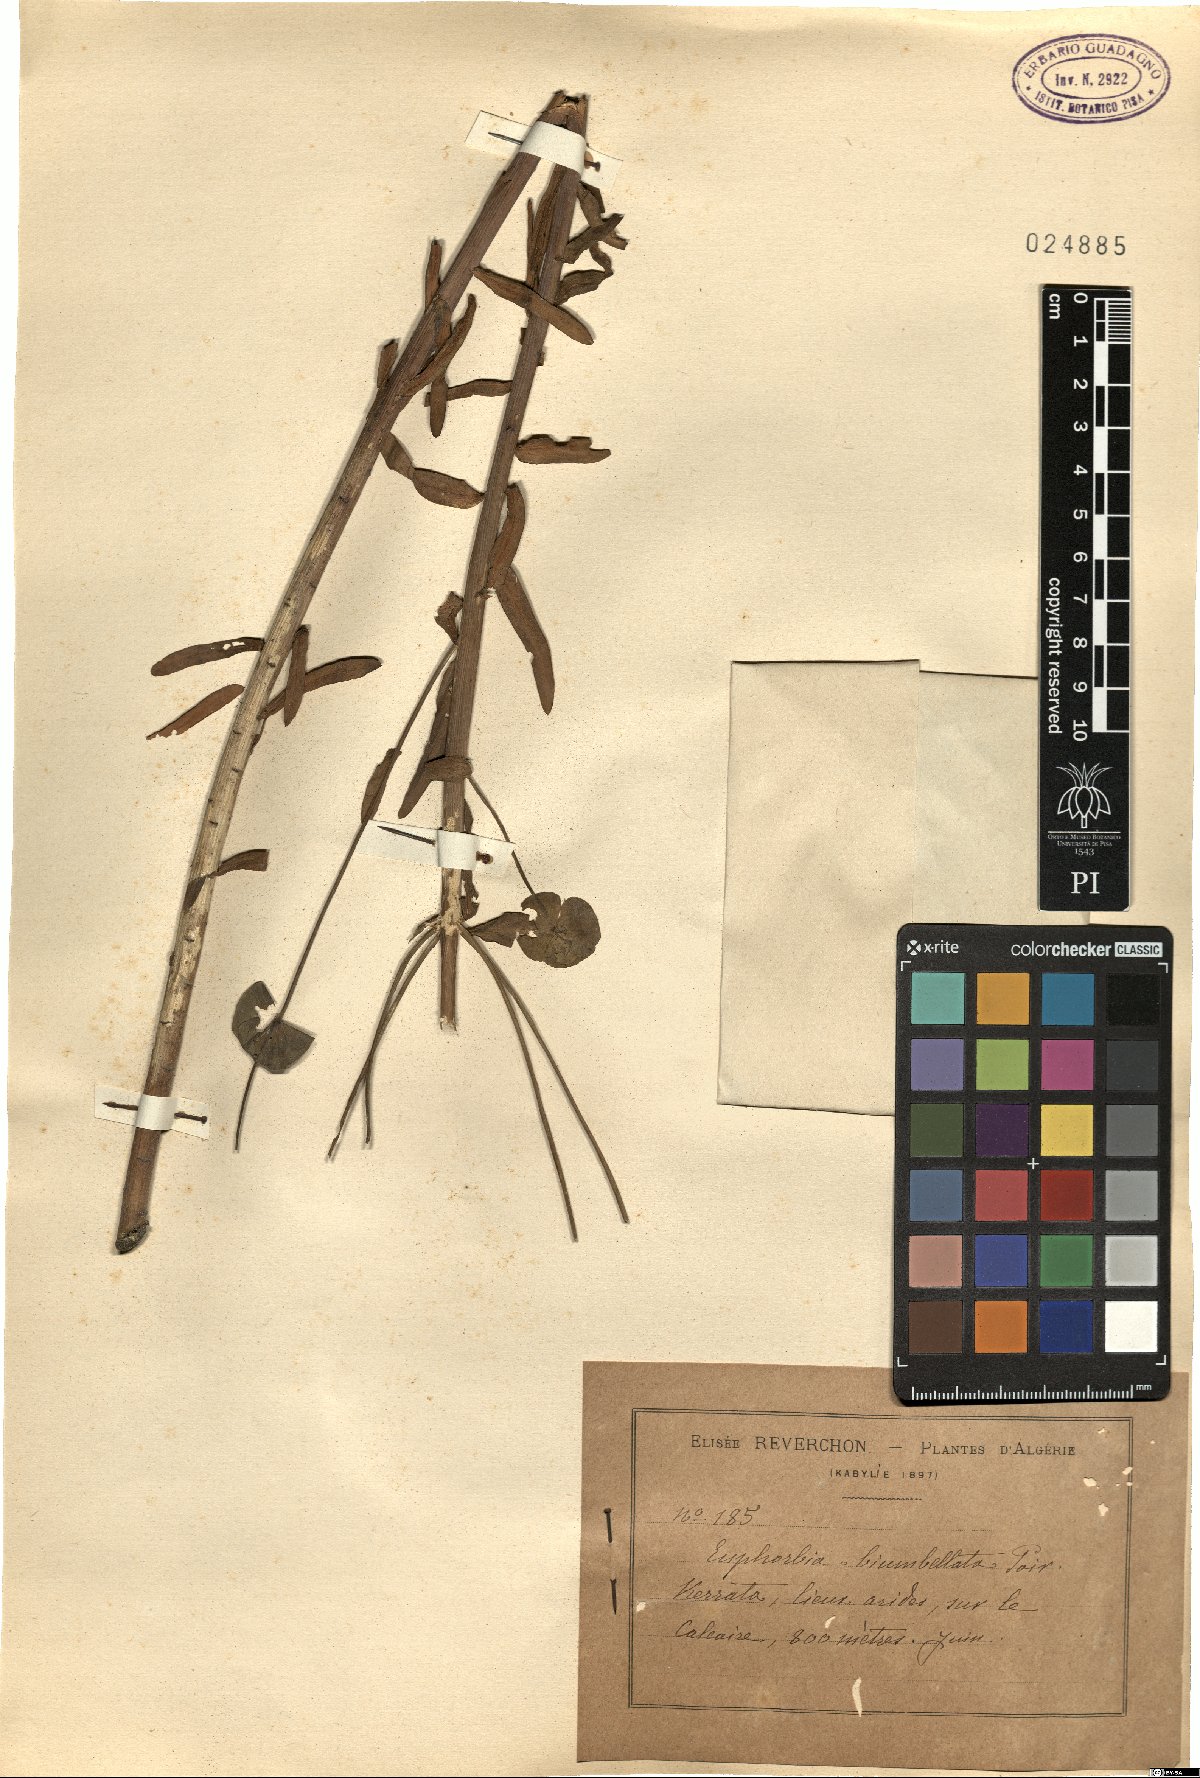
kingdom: Plantae
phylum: Tracheophyta
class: Magnoliopsida
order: Malpighiales
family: Euphorbiaceae
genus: Euphorbia
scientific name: Euphorbia biumbellata
